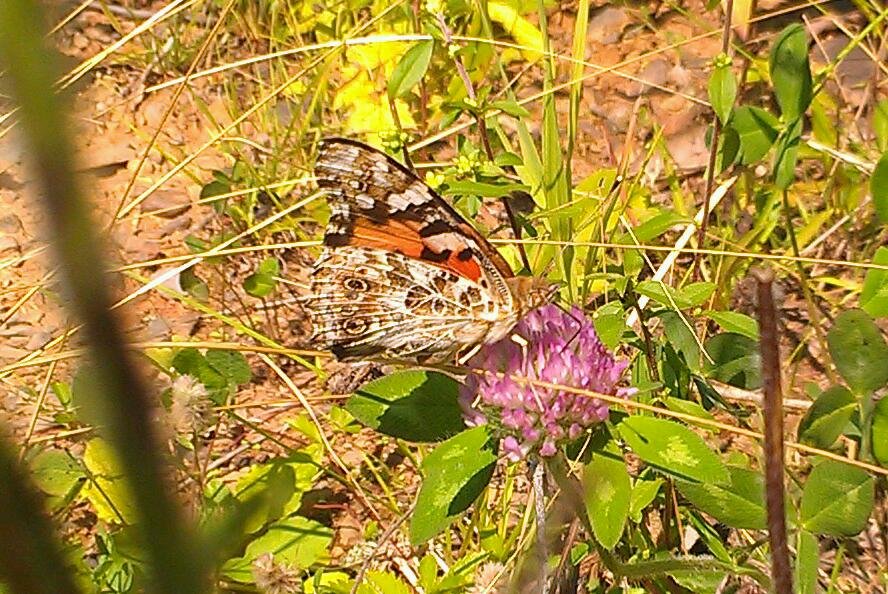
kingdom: Animalia
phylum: Arthropoda
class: Insecta
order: Lepidoptera
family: Nymphalidae
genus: Vanessa
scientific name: Vanessa cardui
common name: Painted Lady
